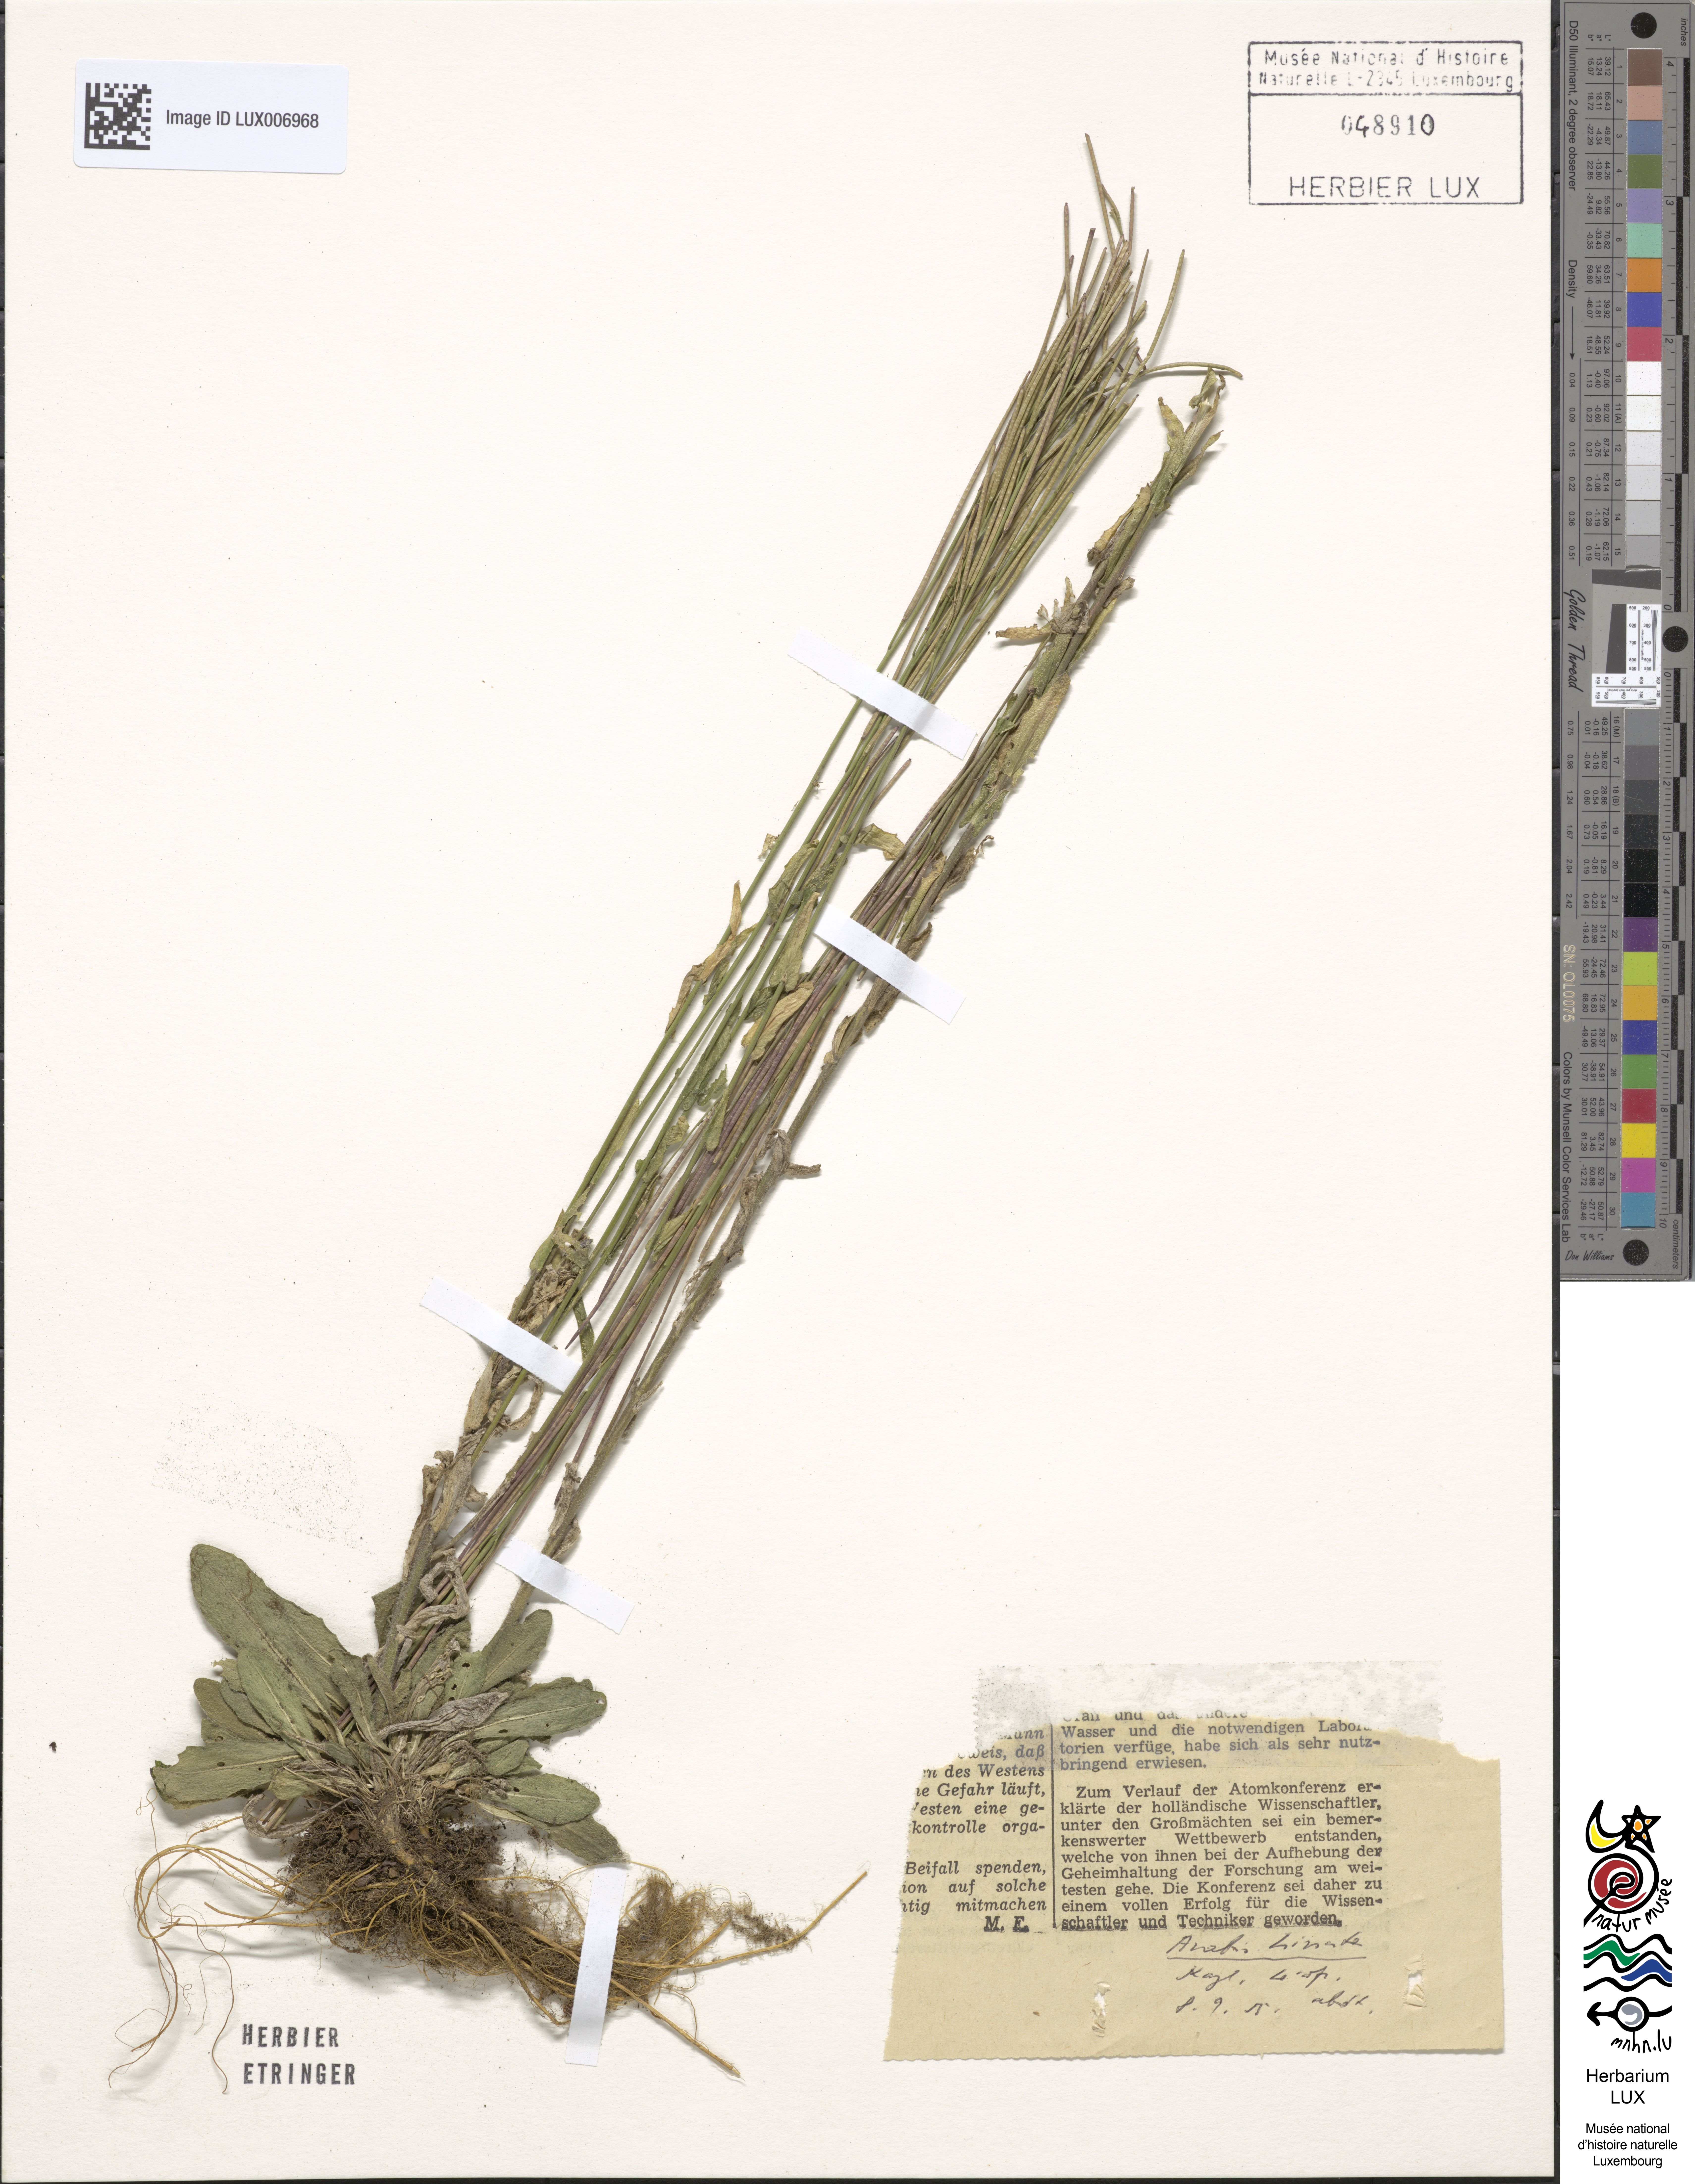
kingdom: Plantae
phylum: Tracheophyta
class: Magnoliopsida
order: Brassicales
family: Brassicaceae
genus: Arabis
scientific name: Arabis hirsuta
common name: Hairy rock-cress
